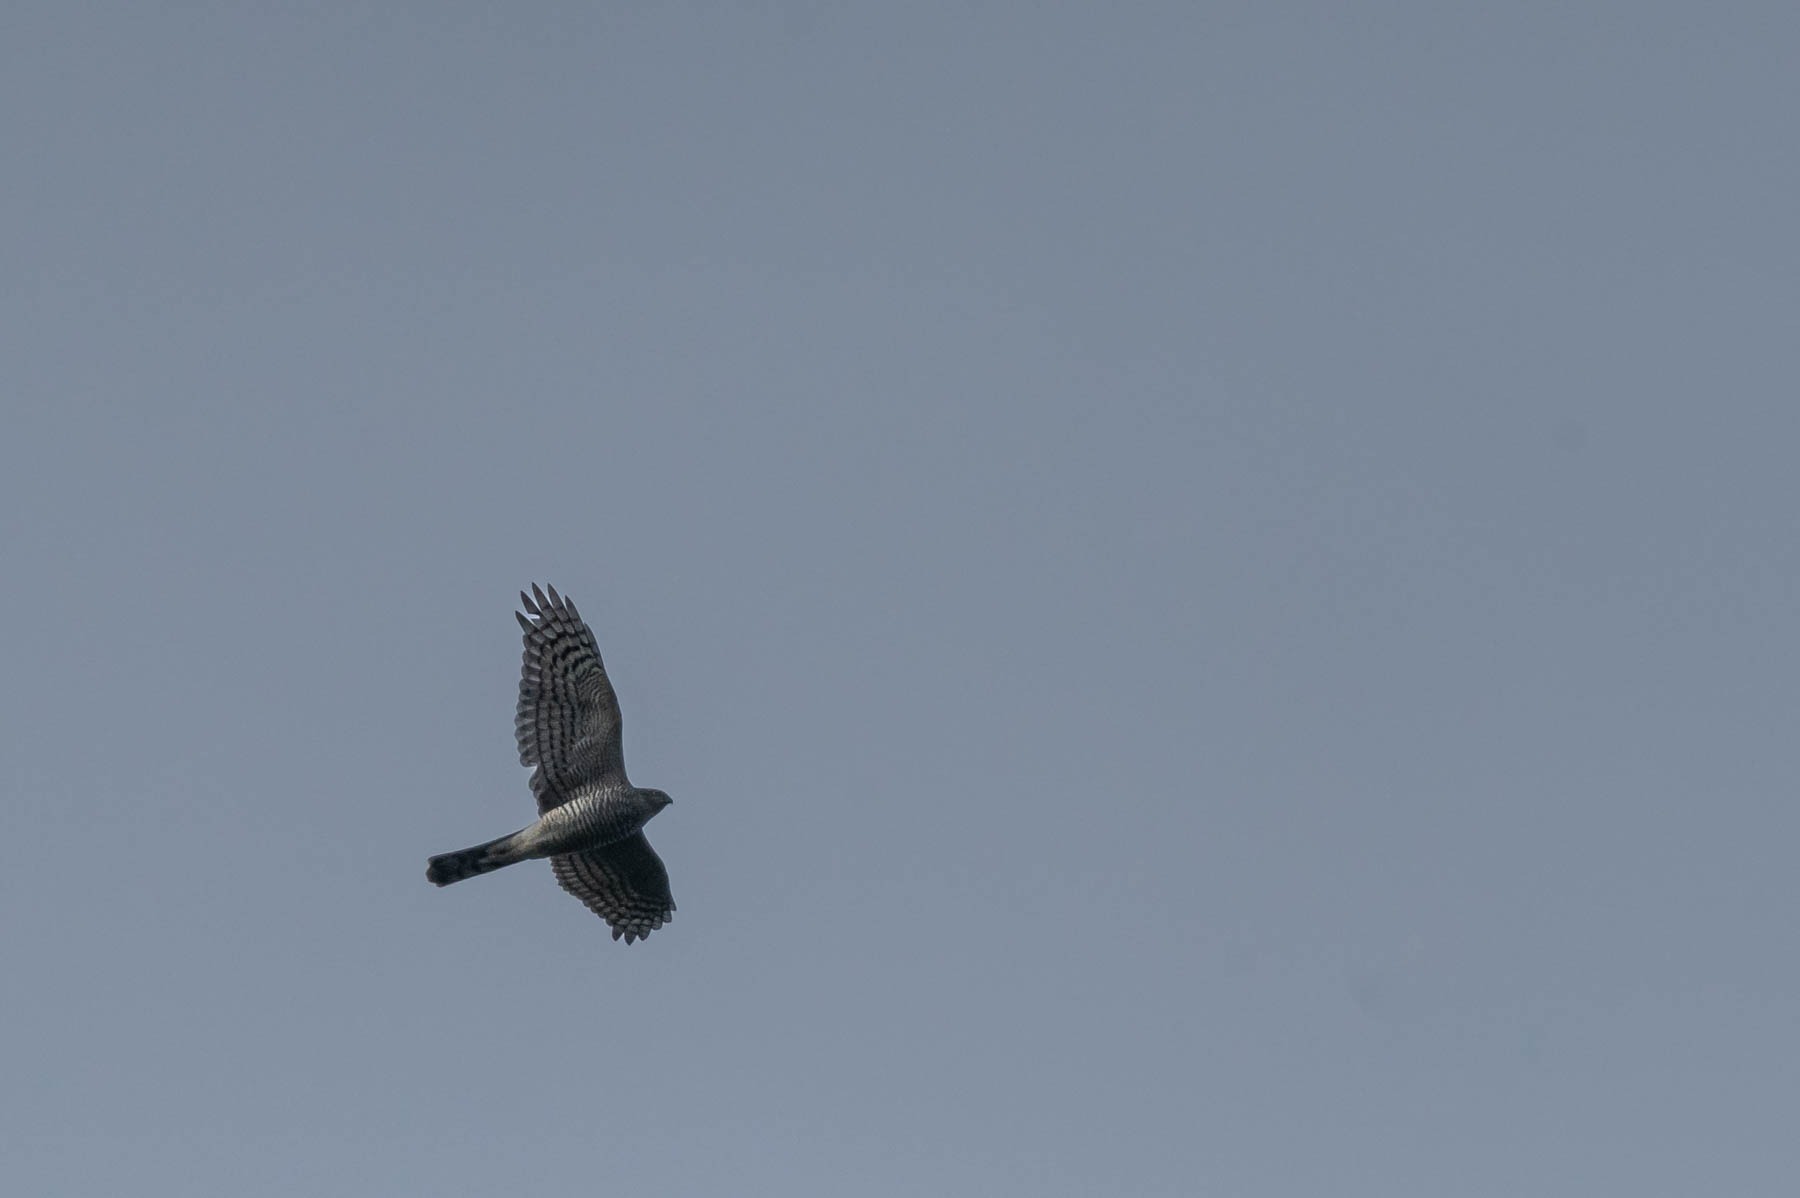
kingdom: Animalia
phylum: Chordata
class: Aves
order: Accipitriformes
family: Accipitridae
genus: Accipiter
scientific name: Accipiter nisus
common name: Spurvehøg
